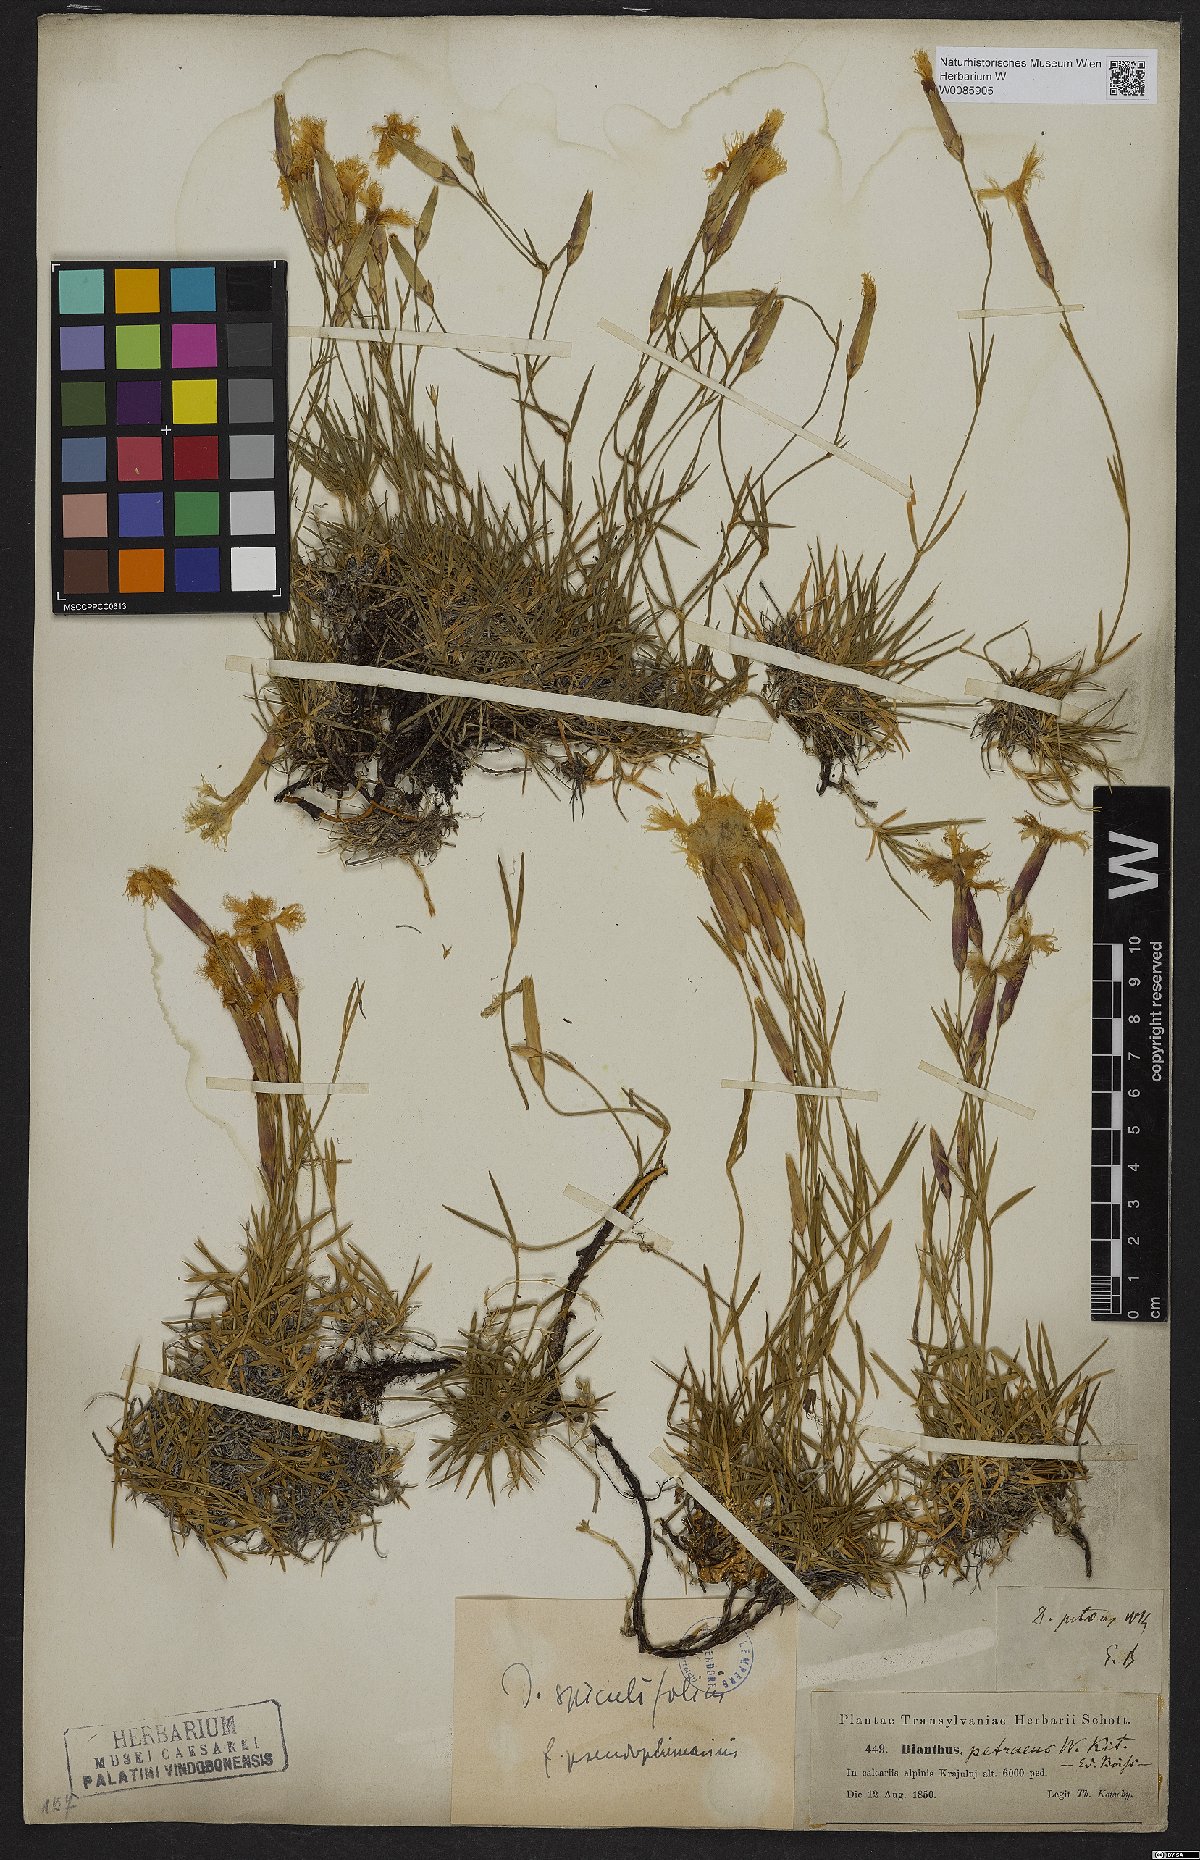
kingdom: Plantae
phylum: Tracheophyta
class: Magnoliopsida
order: Caryophyllales
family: Caryophyllaceae
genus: Dianthus
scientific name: Dianthus spiculifolius
